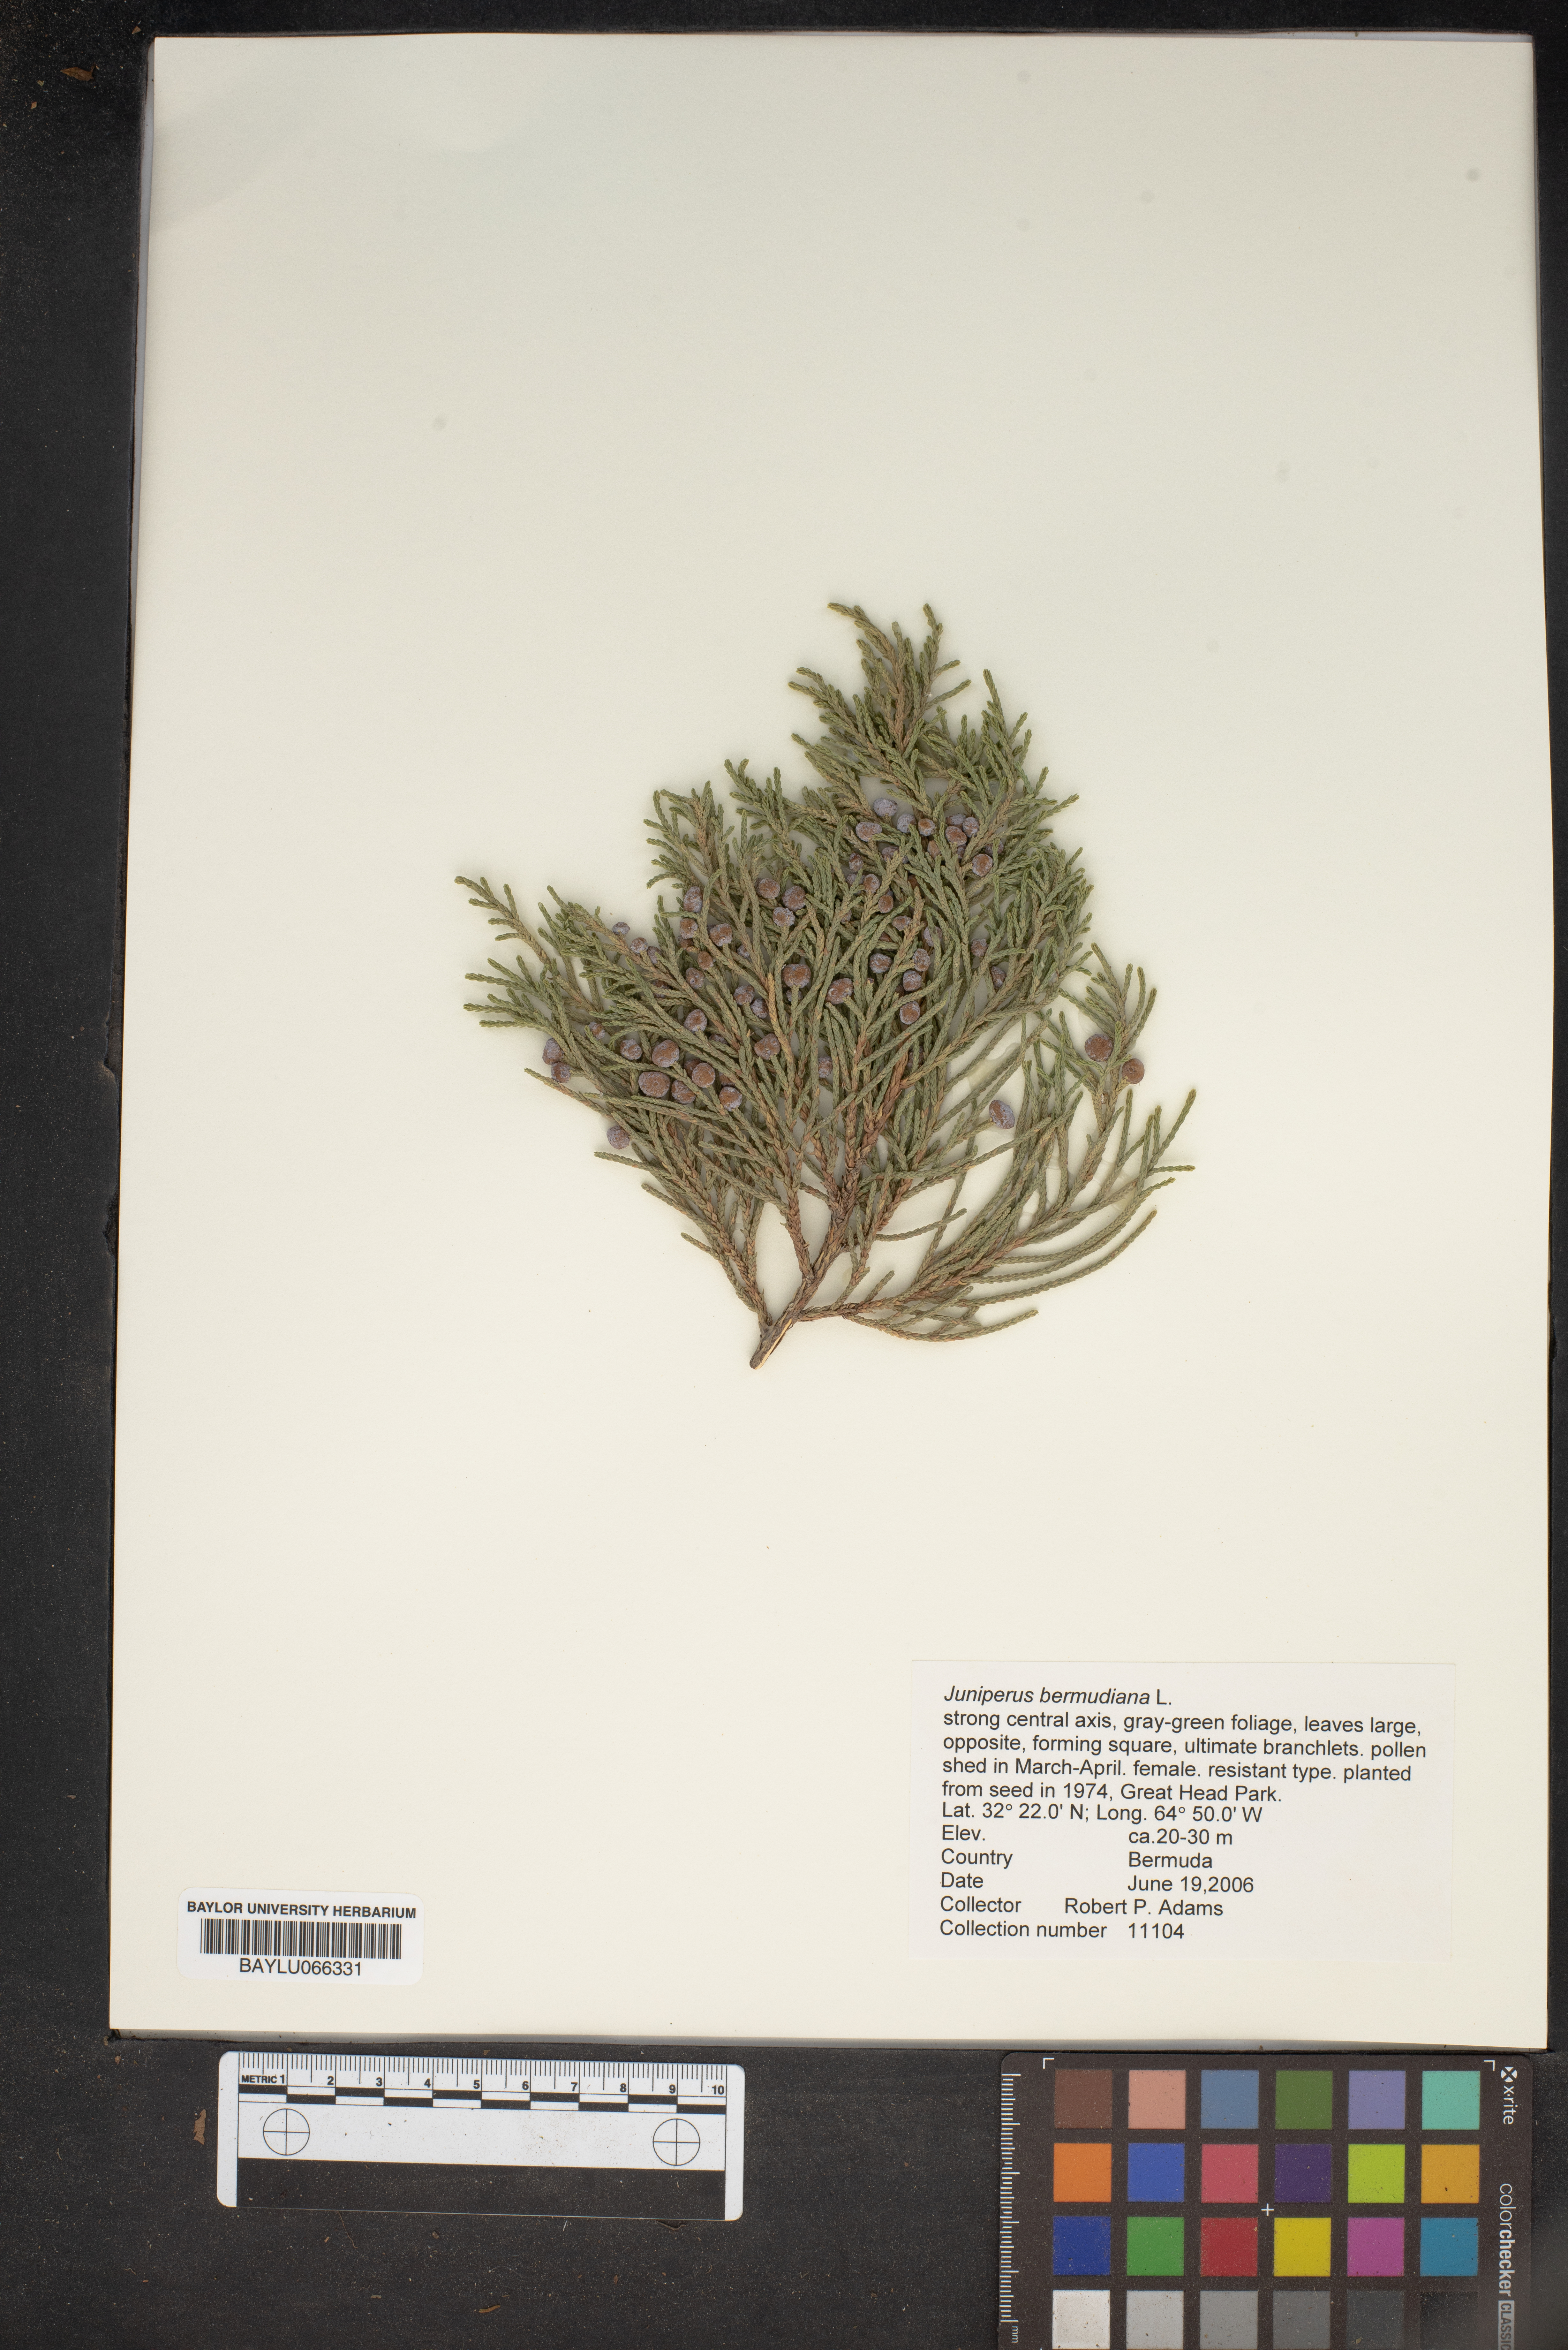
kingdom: Plantae
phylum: Tracheophyta
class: Pinopsida
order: Pinales
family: Cupressaceae
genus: Juniperus
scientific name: Juniperus bermudiana
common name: Bermuda juniper
